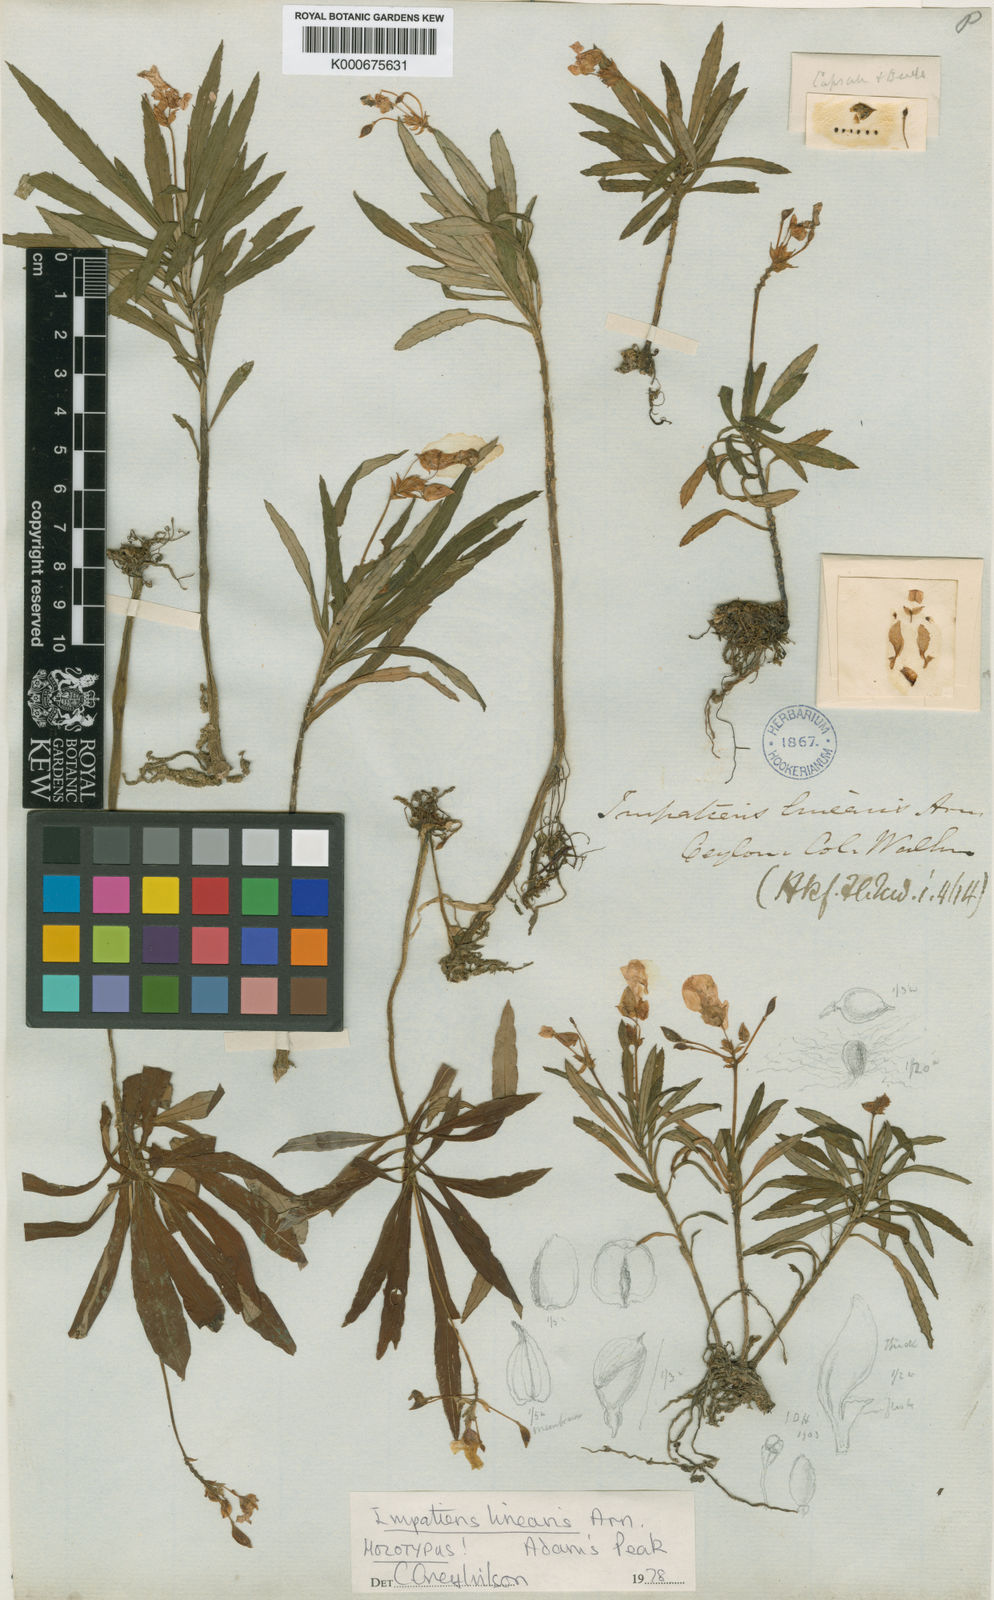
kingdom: Plantae
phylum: Tracheophyta
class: Magnoliopsida
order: Ericales
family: Balsaminaceae
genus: Impatiens
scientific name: Impatiens linearis
